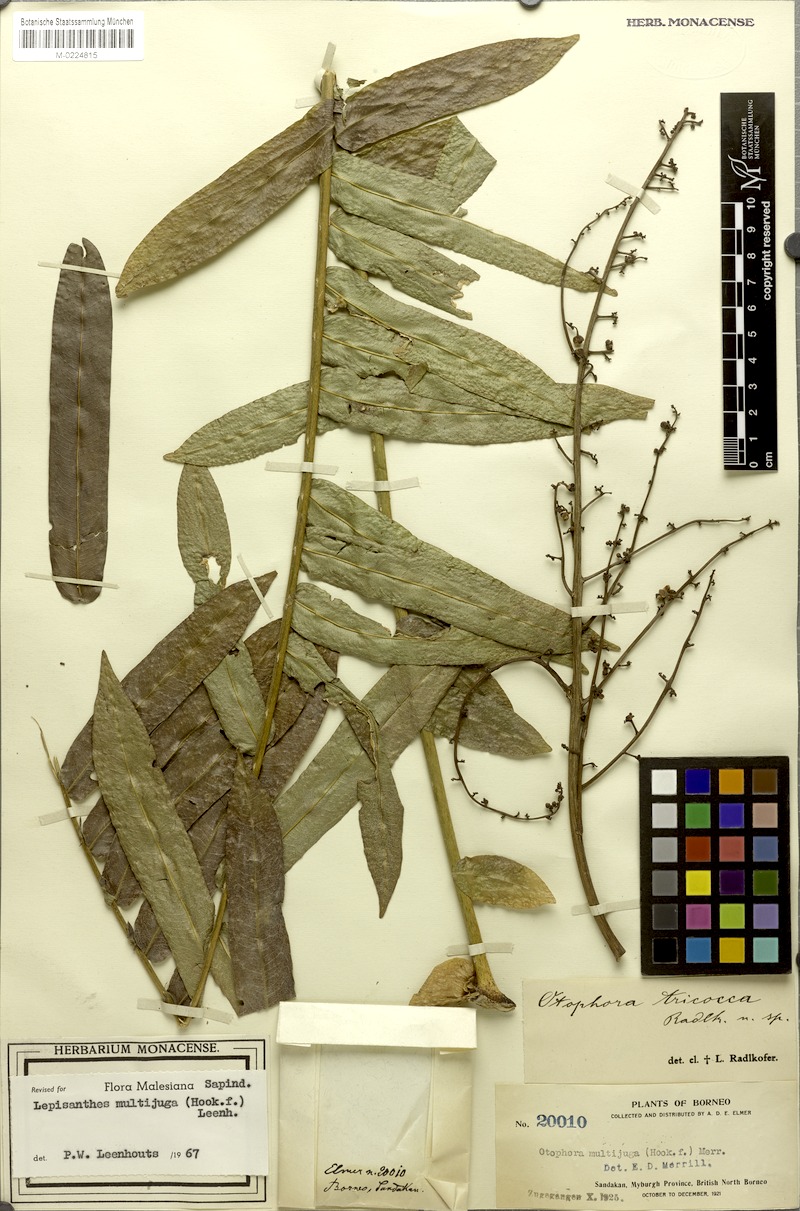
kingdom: Plantae
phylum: Tracheophyta
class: Magnoliopsida
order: Sapindales
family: Sapindaceae
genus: Lepisanthes
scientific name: Lepisanthes multijuga
